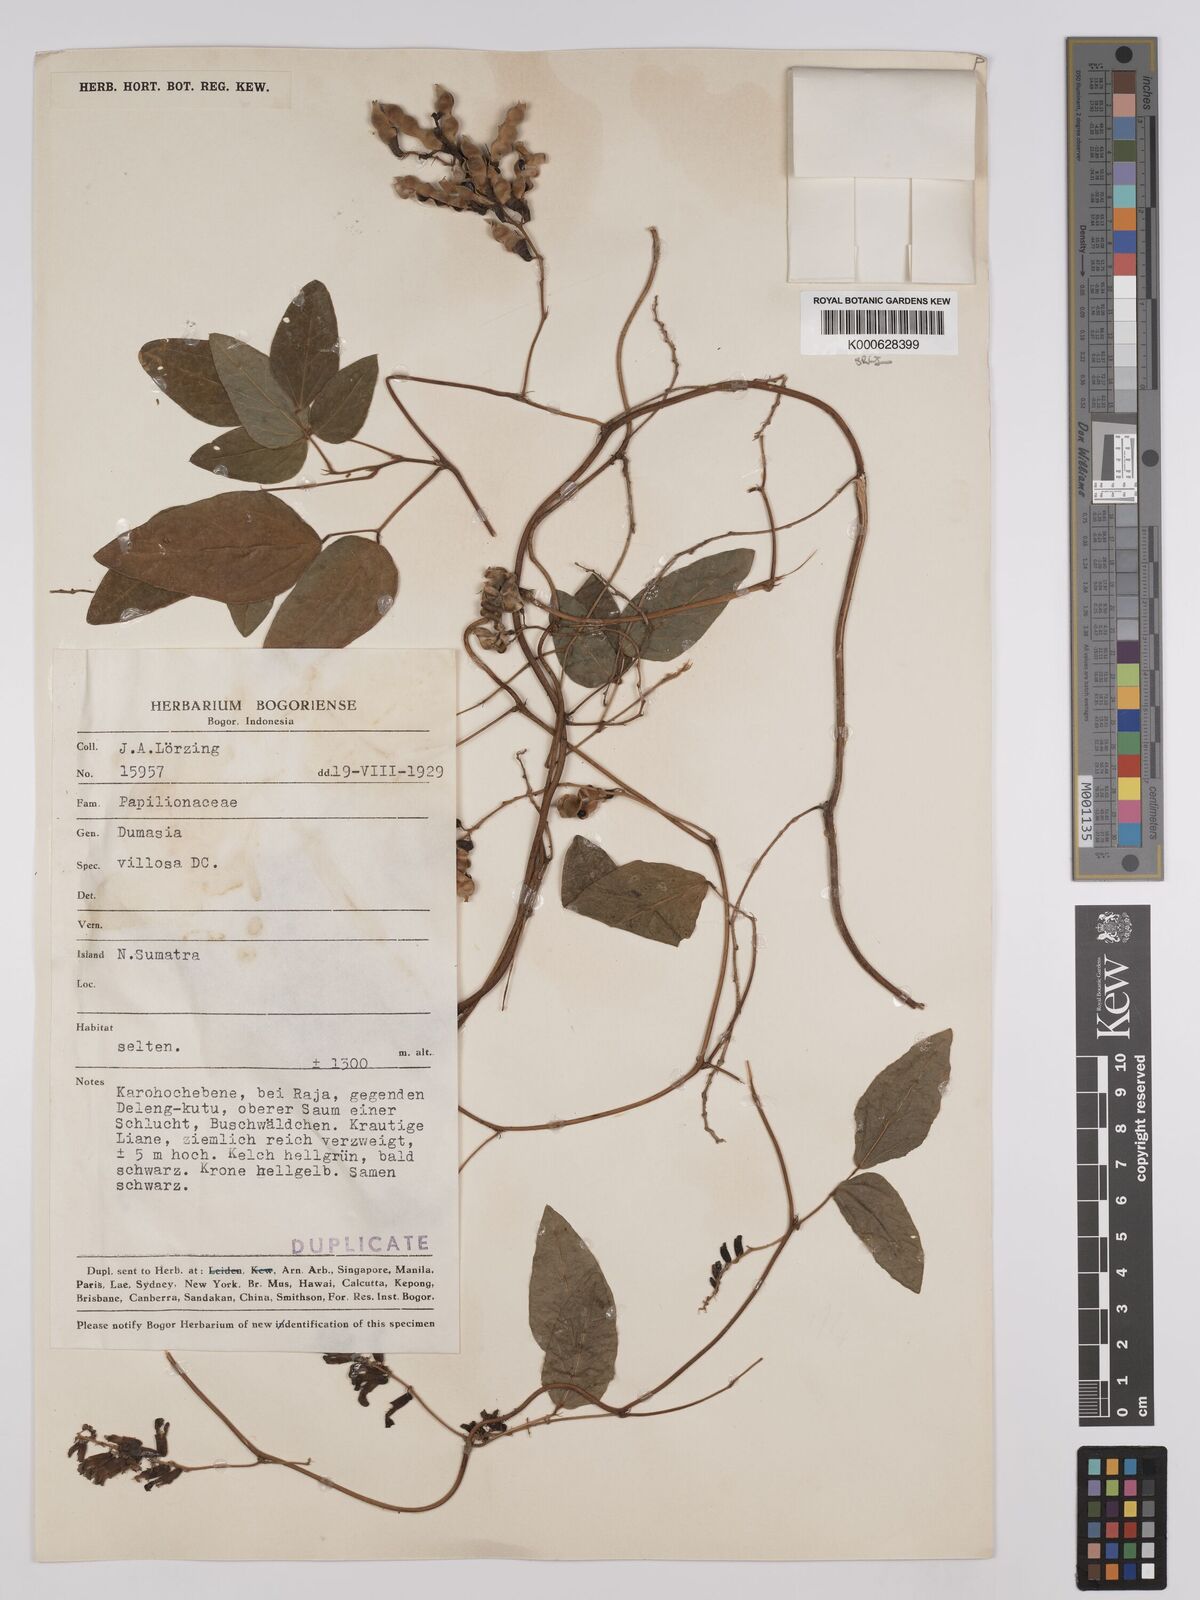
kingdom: Plantae
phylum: Tracheophyta
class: Magnoliopsida
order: Fabales
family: Fabaceae
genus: Dumasia
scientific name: Dumasia villosa
